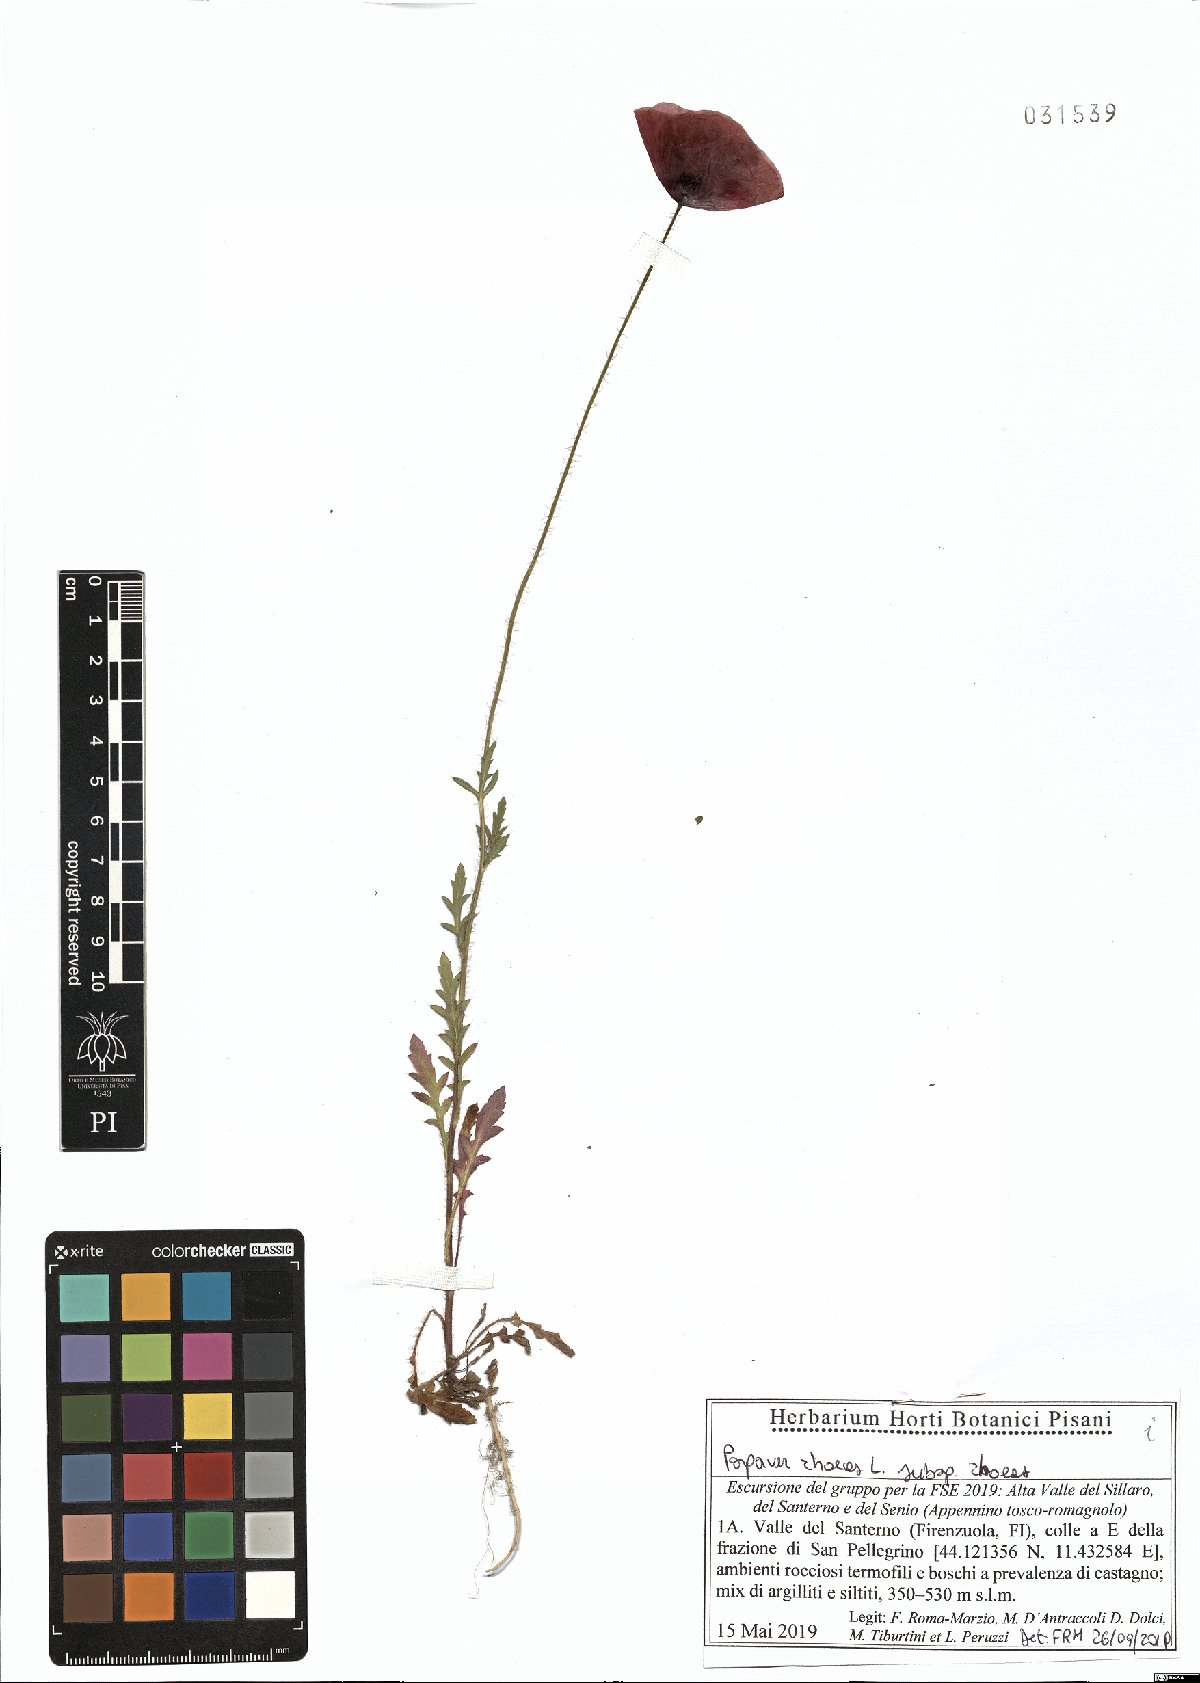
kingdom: Plantae
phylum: Tracheophyta
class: Magnoliopsida
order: Ranunculales
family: Papaveraceae
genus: Papaver
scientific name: Papaver rhoeas
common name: Corn poppy
